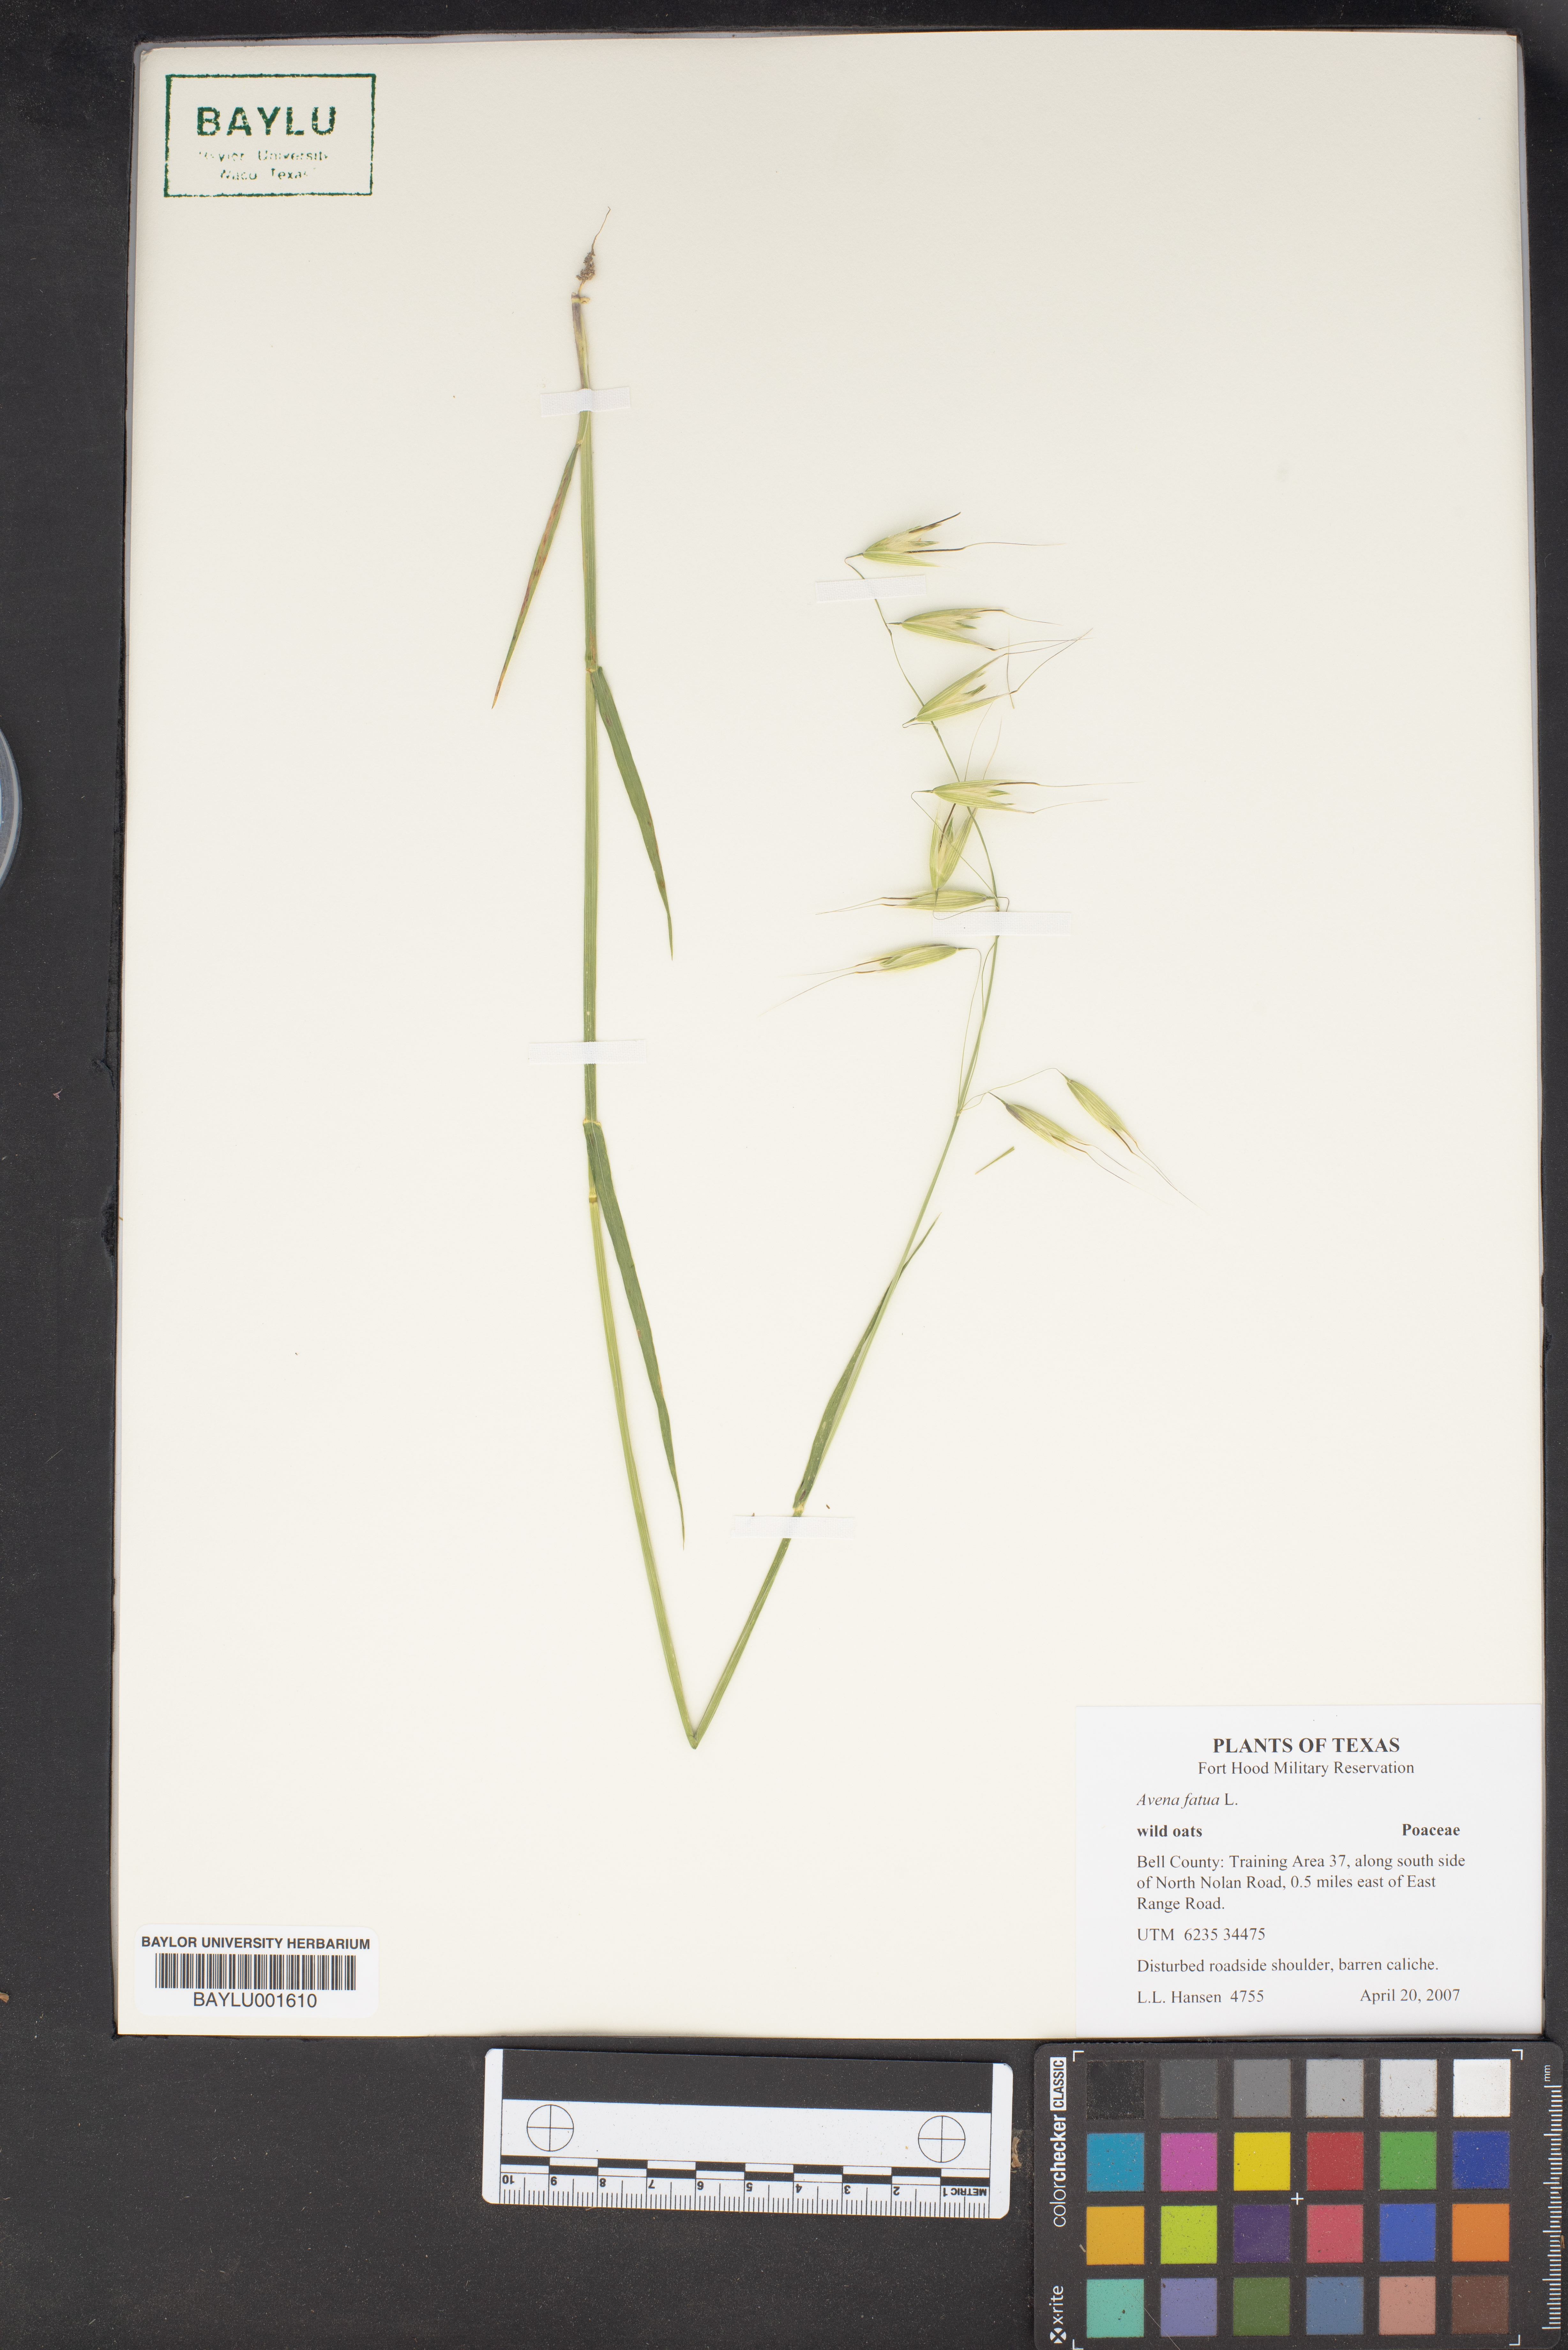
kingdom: Plantae
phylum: Tracheophyta
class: Liliopsida
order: Poales
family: Poaceae
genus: Avena
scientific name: Avena fatua
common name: Wild oat
